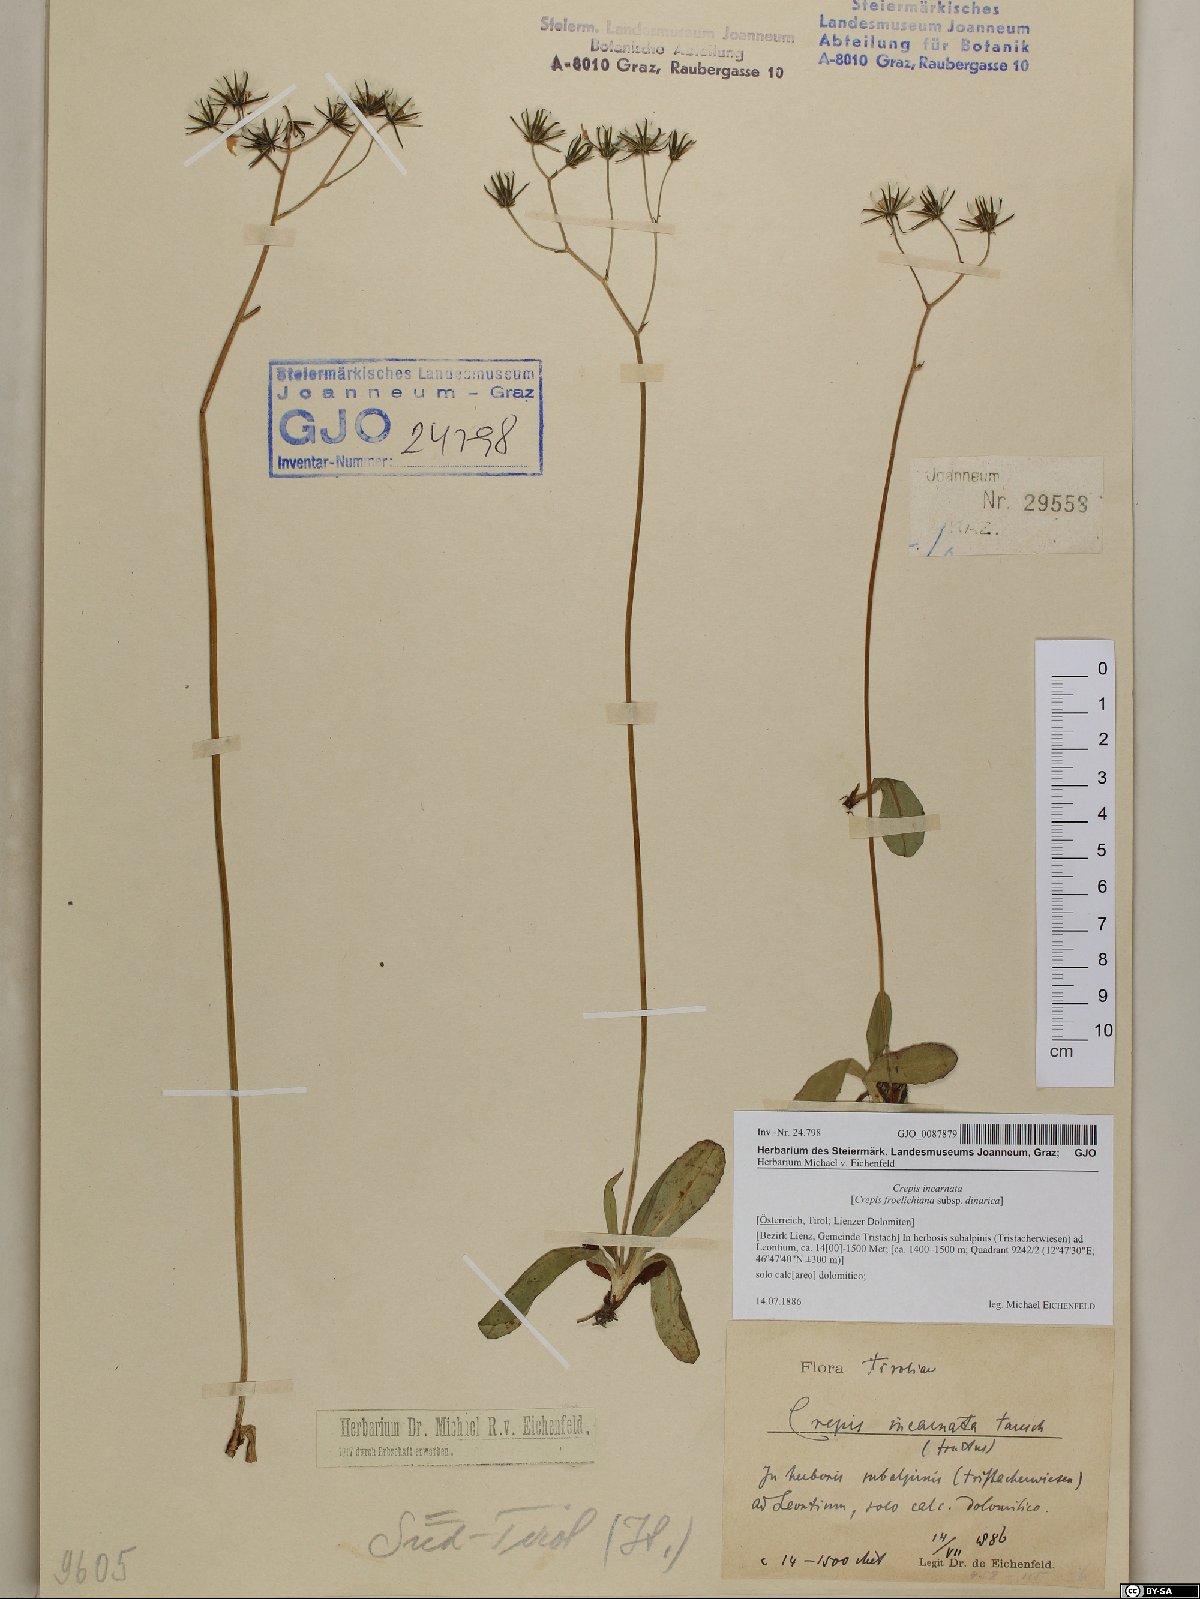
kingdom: Plantae
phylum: Tracheophyta
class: Magnoliopsida
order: Asterales
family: Asteraceae
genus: Crepis
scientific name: Crepis froelichiana
